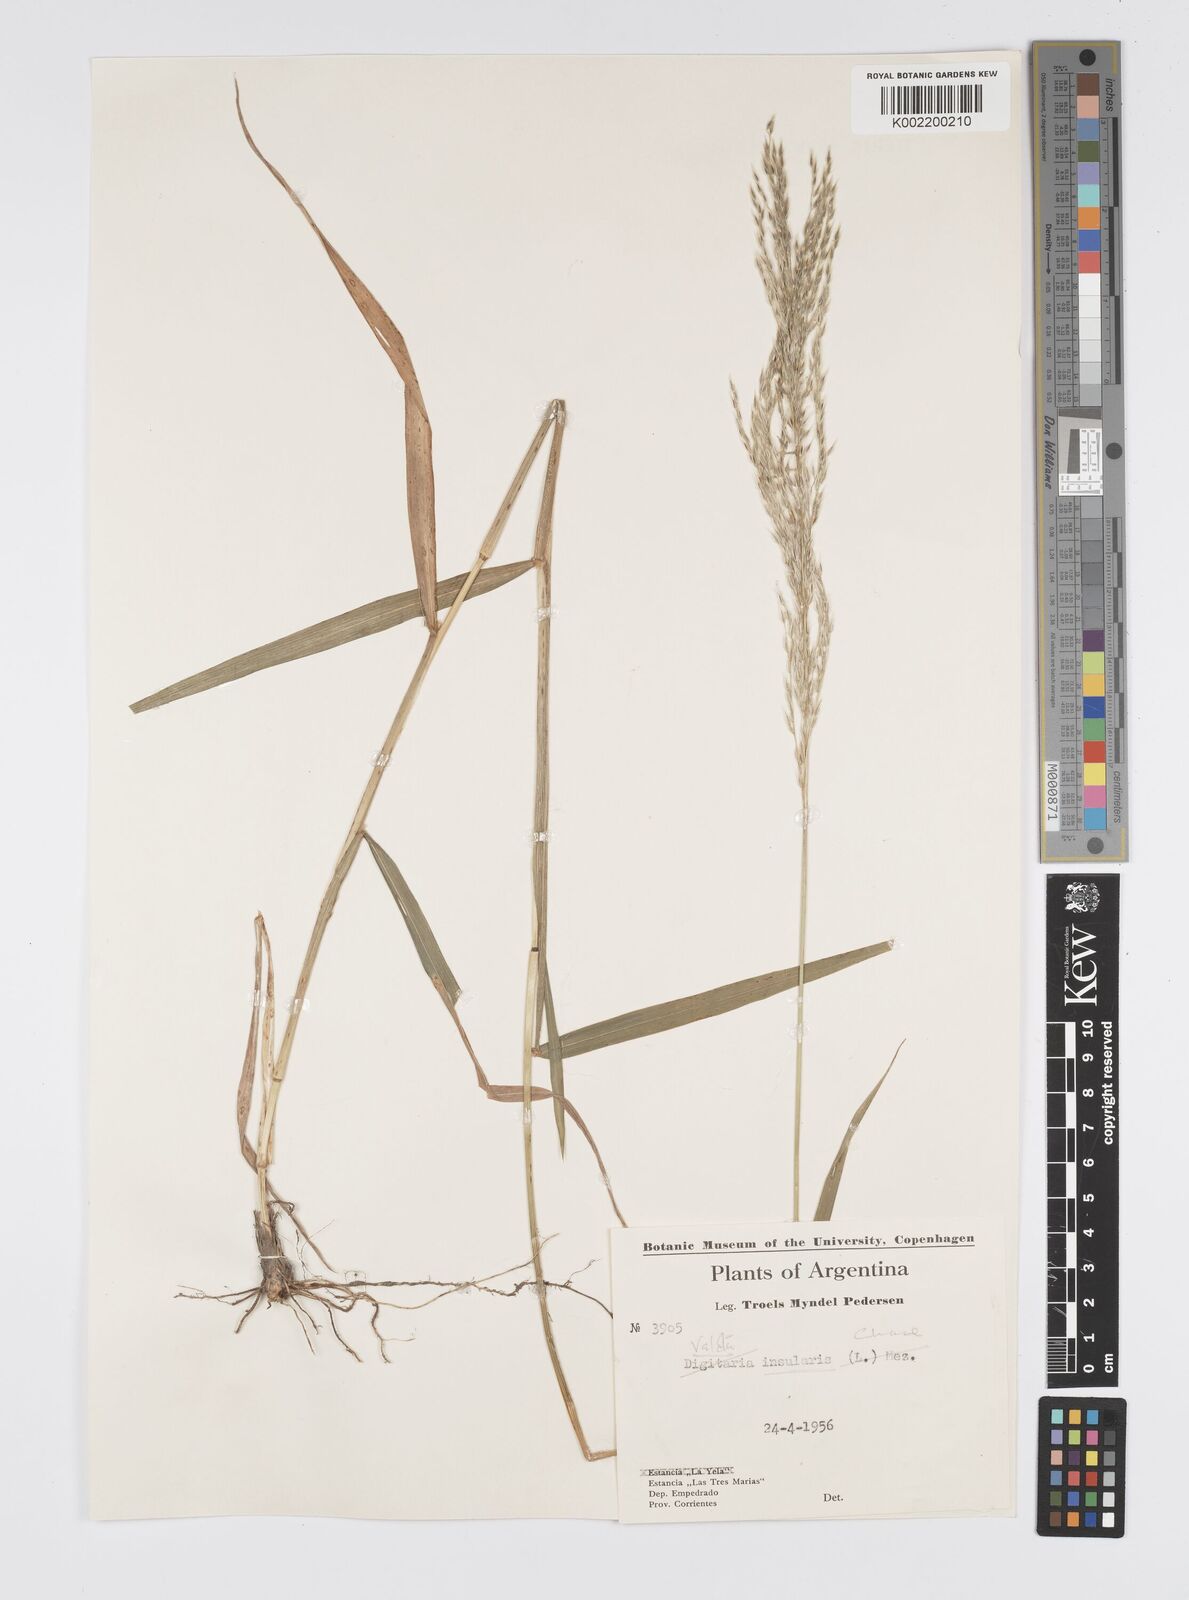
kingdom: Plantae
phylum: Tracheophyta
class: Liliopsida
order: Poales
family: Poaceae
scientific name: Poaceae
